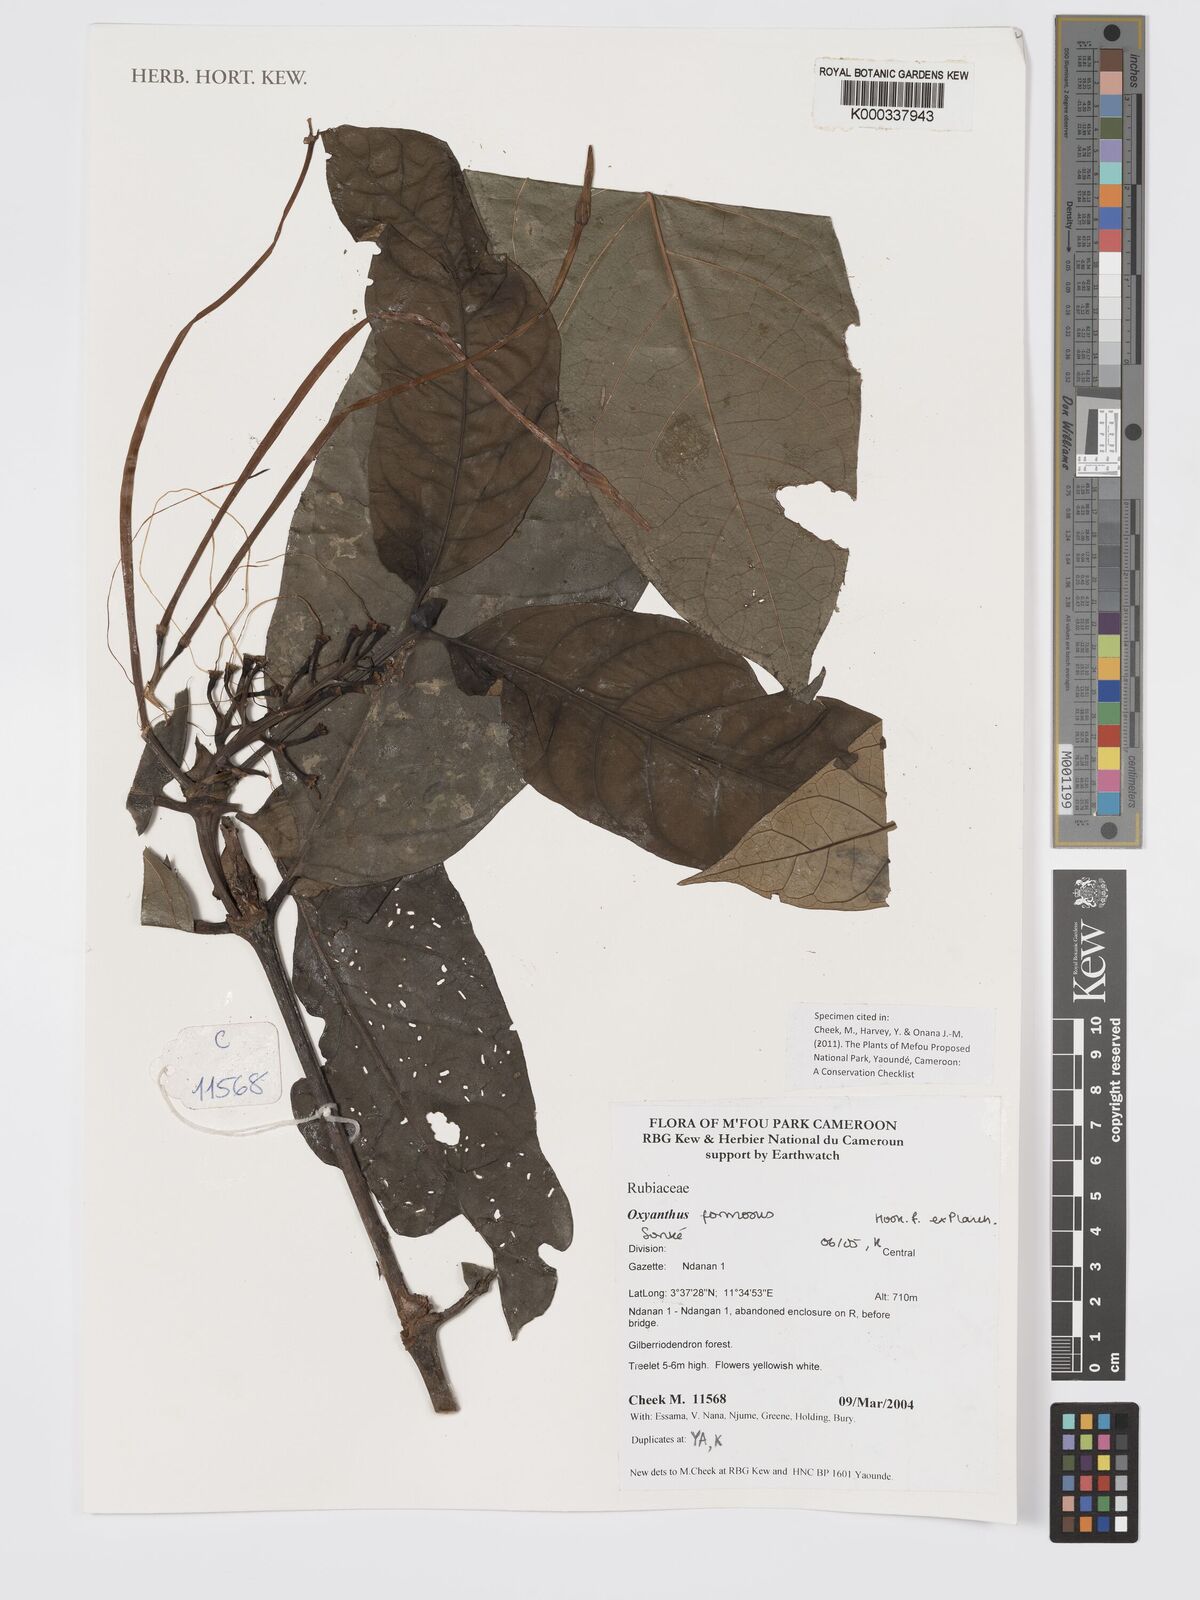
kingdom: Plantae
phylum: Tracheophyta
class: Magnoliopsida
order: Gentianales
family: Rubiaceae
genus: Oxyanthus
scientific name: Oxyanthus
